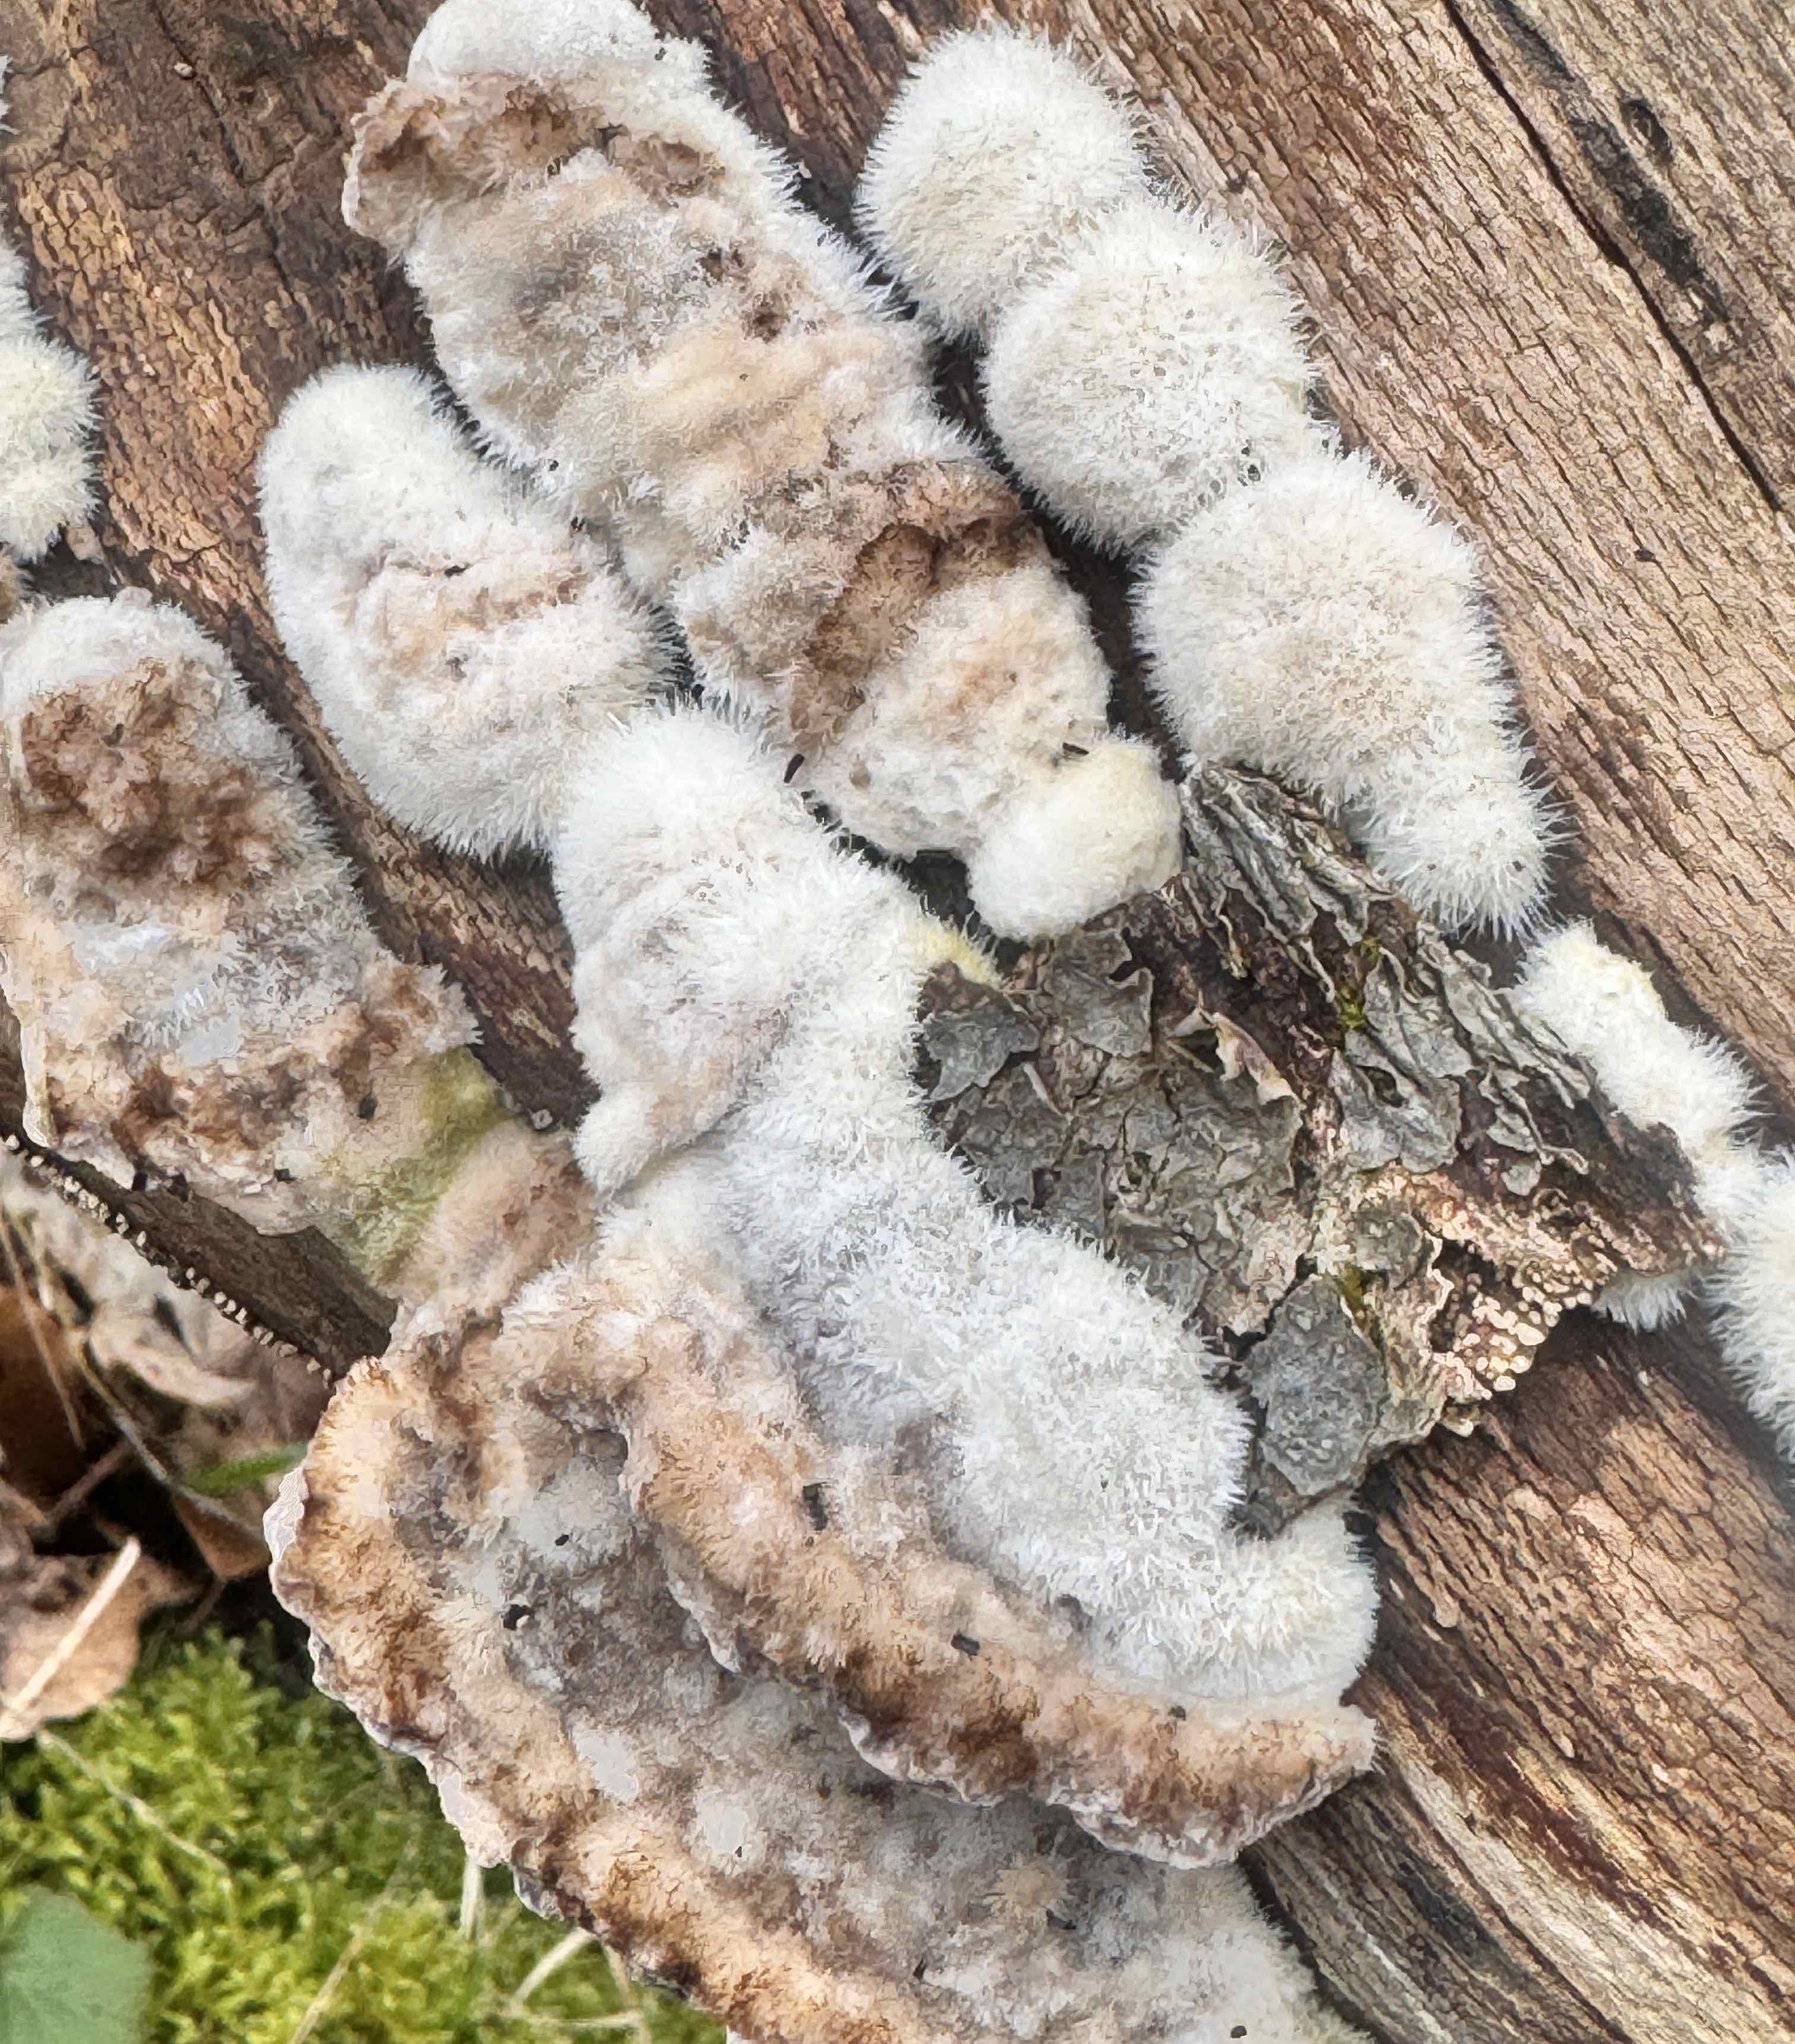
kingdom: Fungi
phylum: Basidiomycota
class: Agaricomycetes
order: Polyporales
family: Dacryobolaceae
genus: Postia
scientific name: Postia ptychogaster
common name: støvende kødporesvamp
